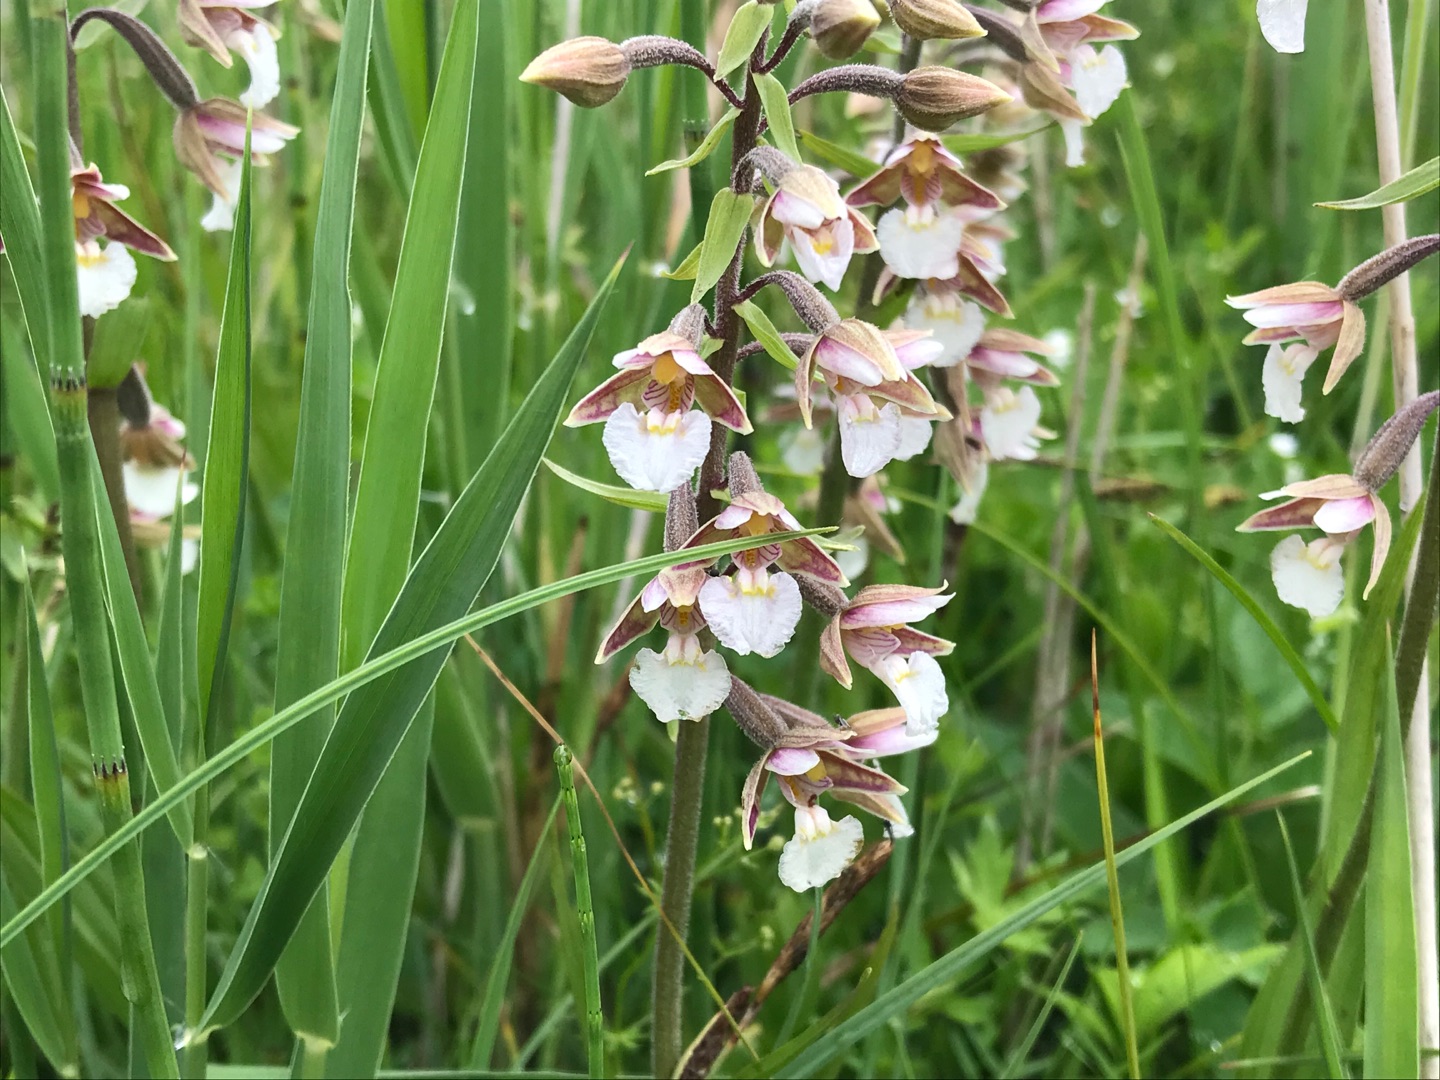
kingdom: Plantae
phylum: Tracheophyta
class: Liliopsida
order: Asparagales
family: Orchidaceae
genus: Epipactis
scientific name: Epipactis palustris
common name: Sump-hullæbe
